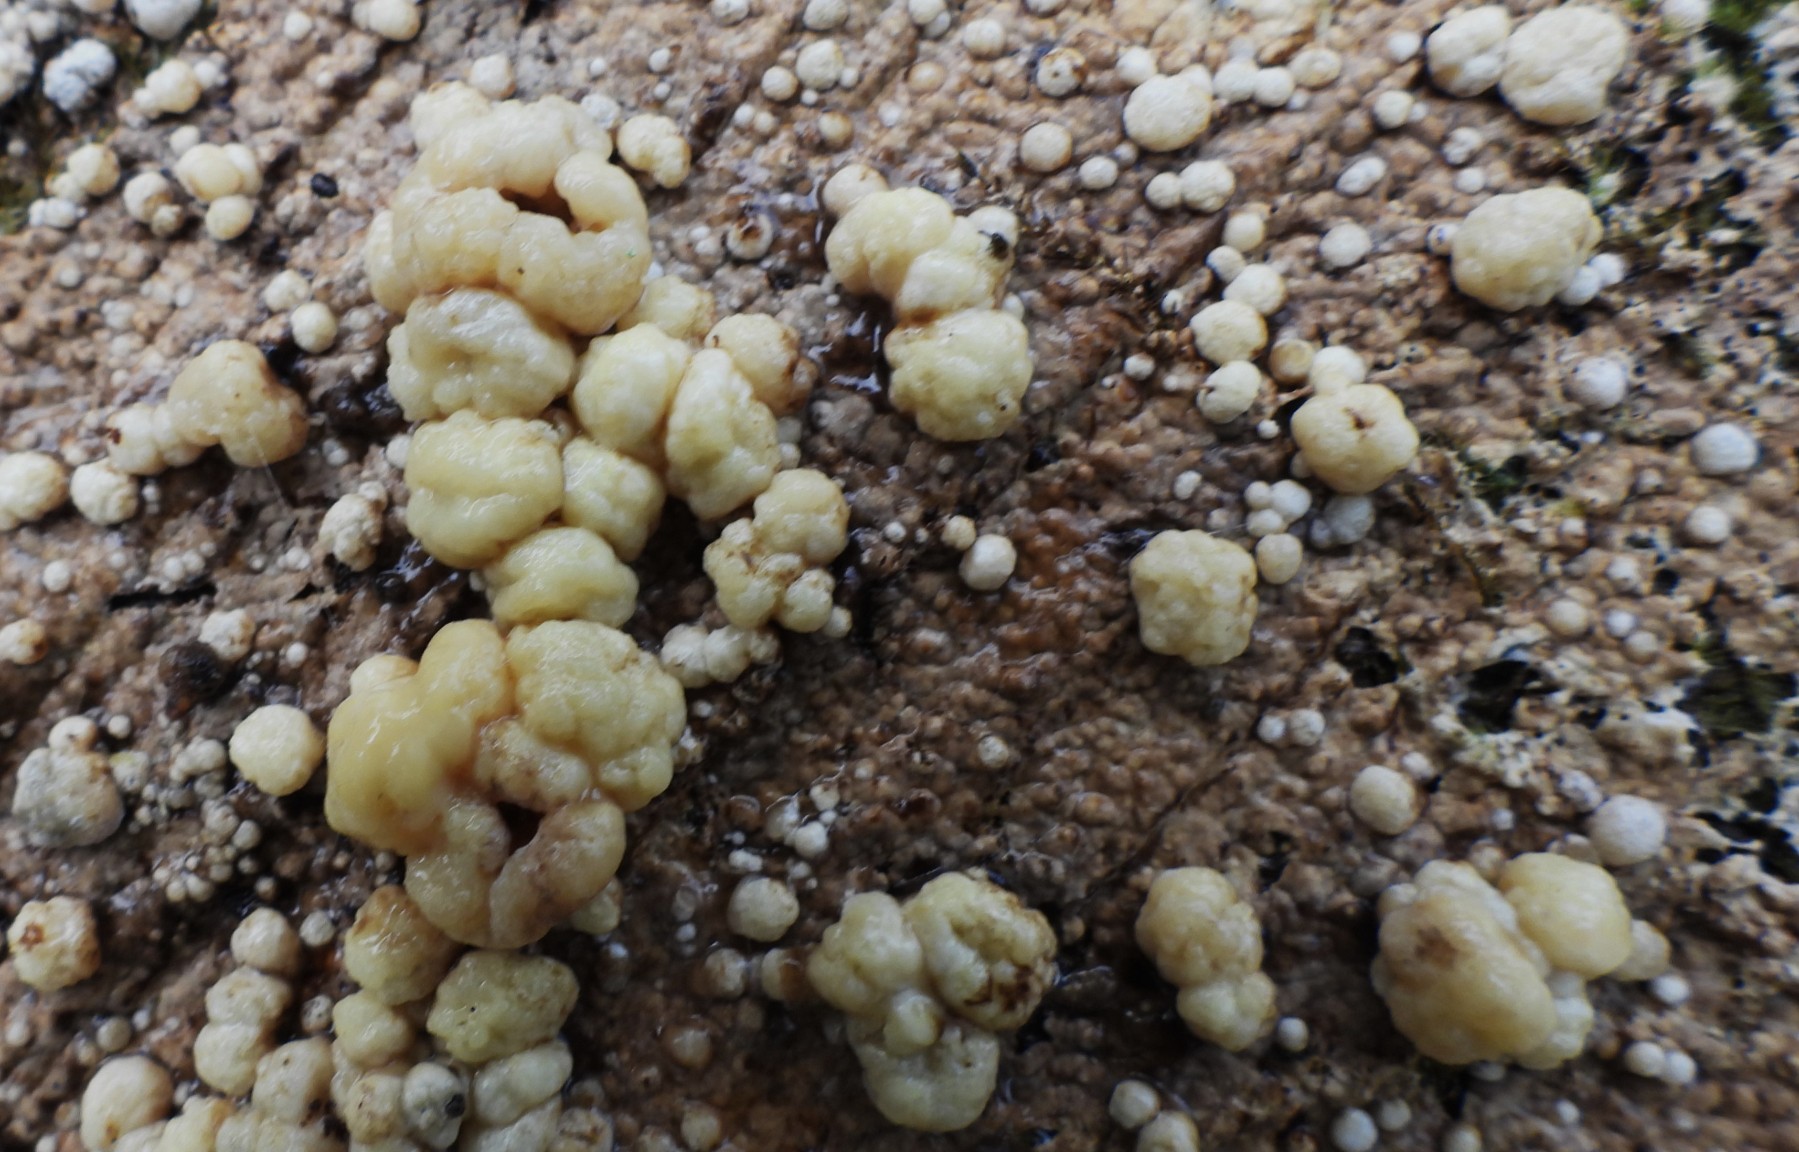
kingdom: Fungi
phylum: Ascomycota
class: Sordariomycetes
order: Xylariales
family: Hypoxylaceae
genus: Nodulisporium
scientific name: Nodulisporium cecidiogenes
